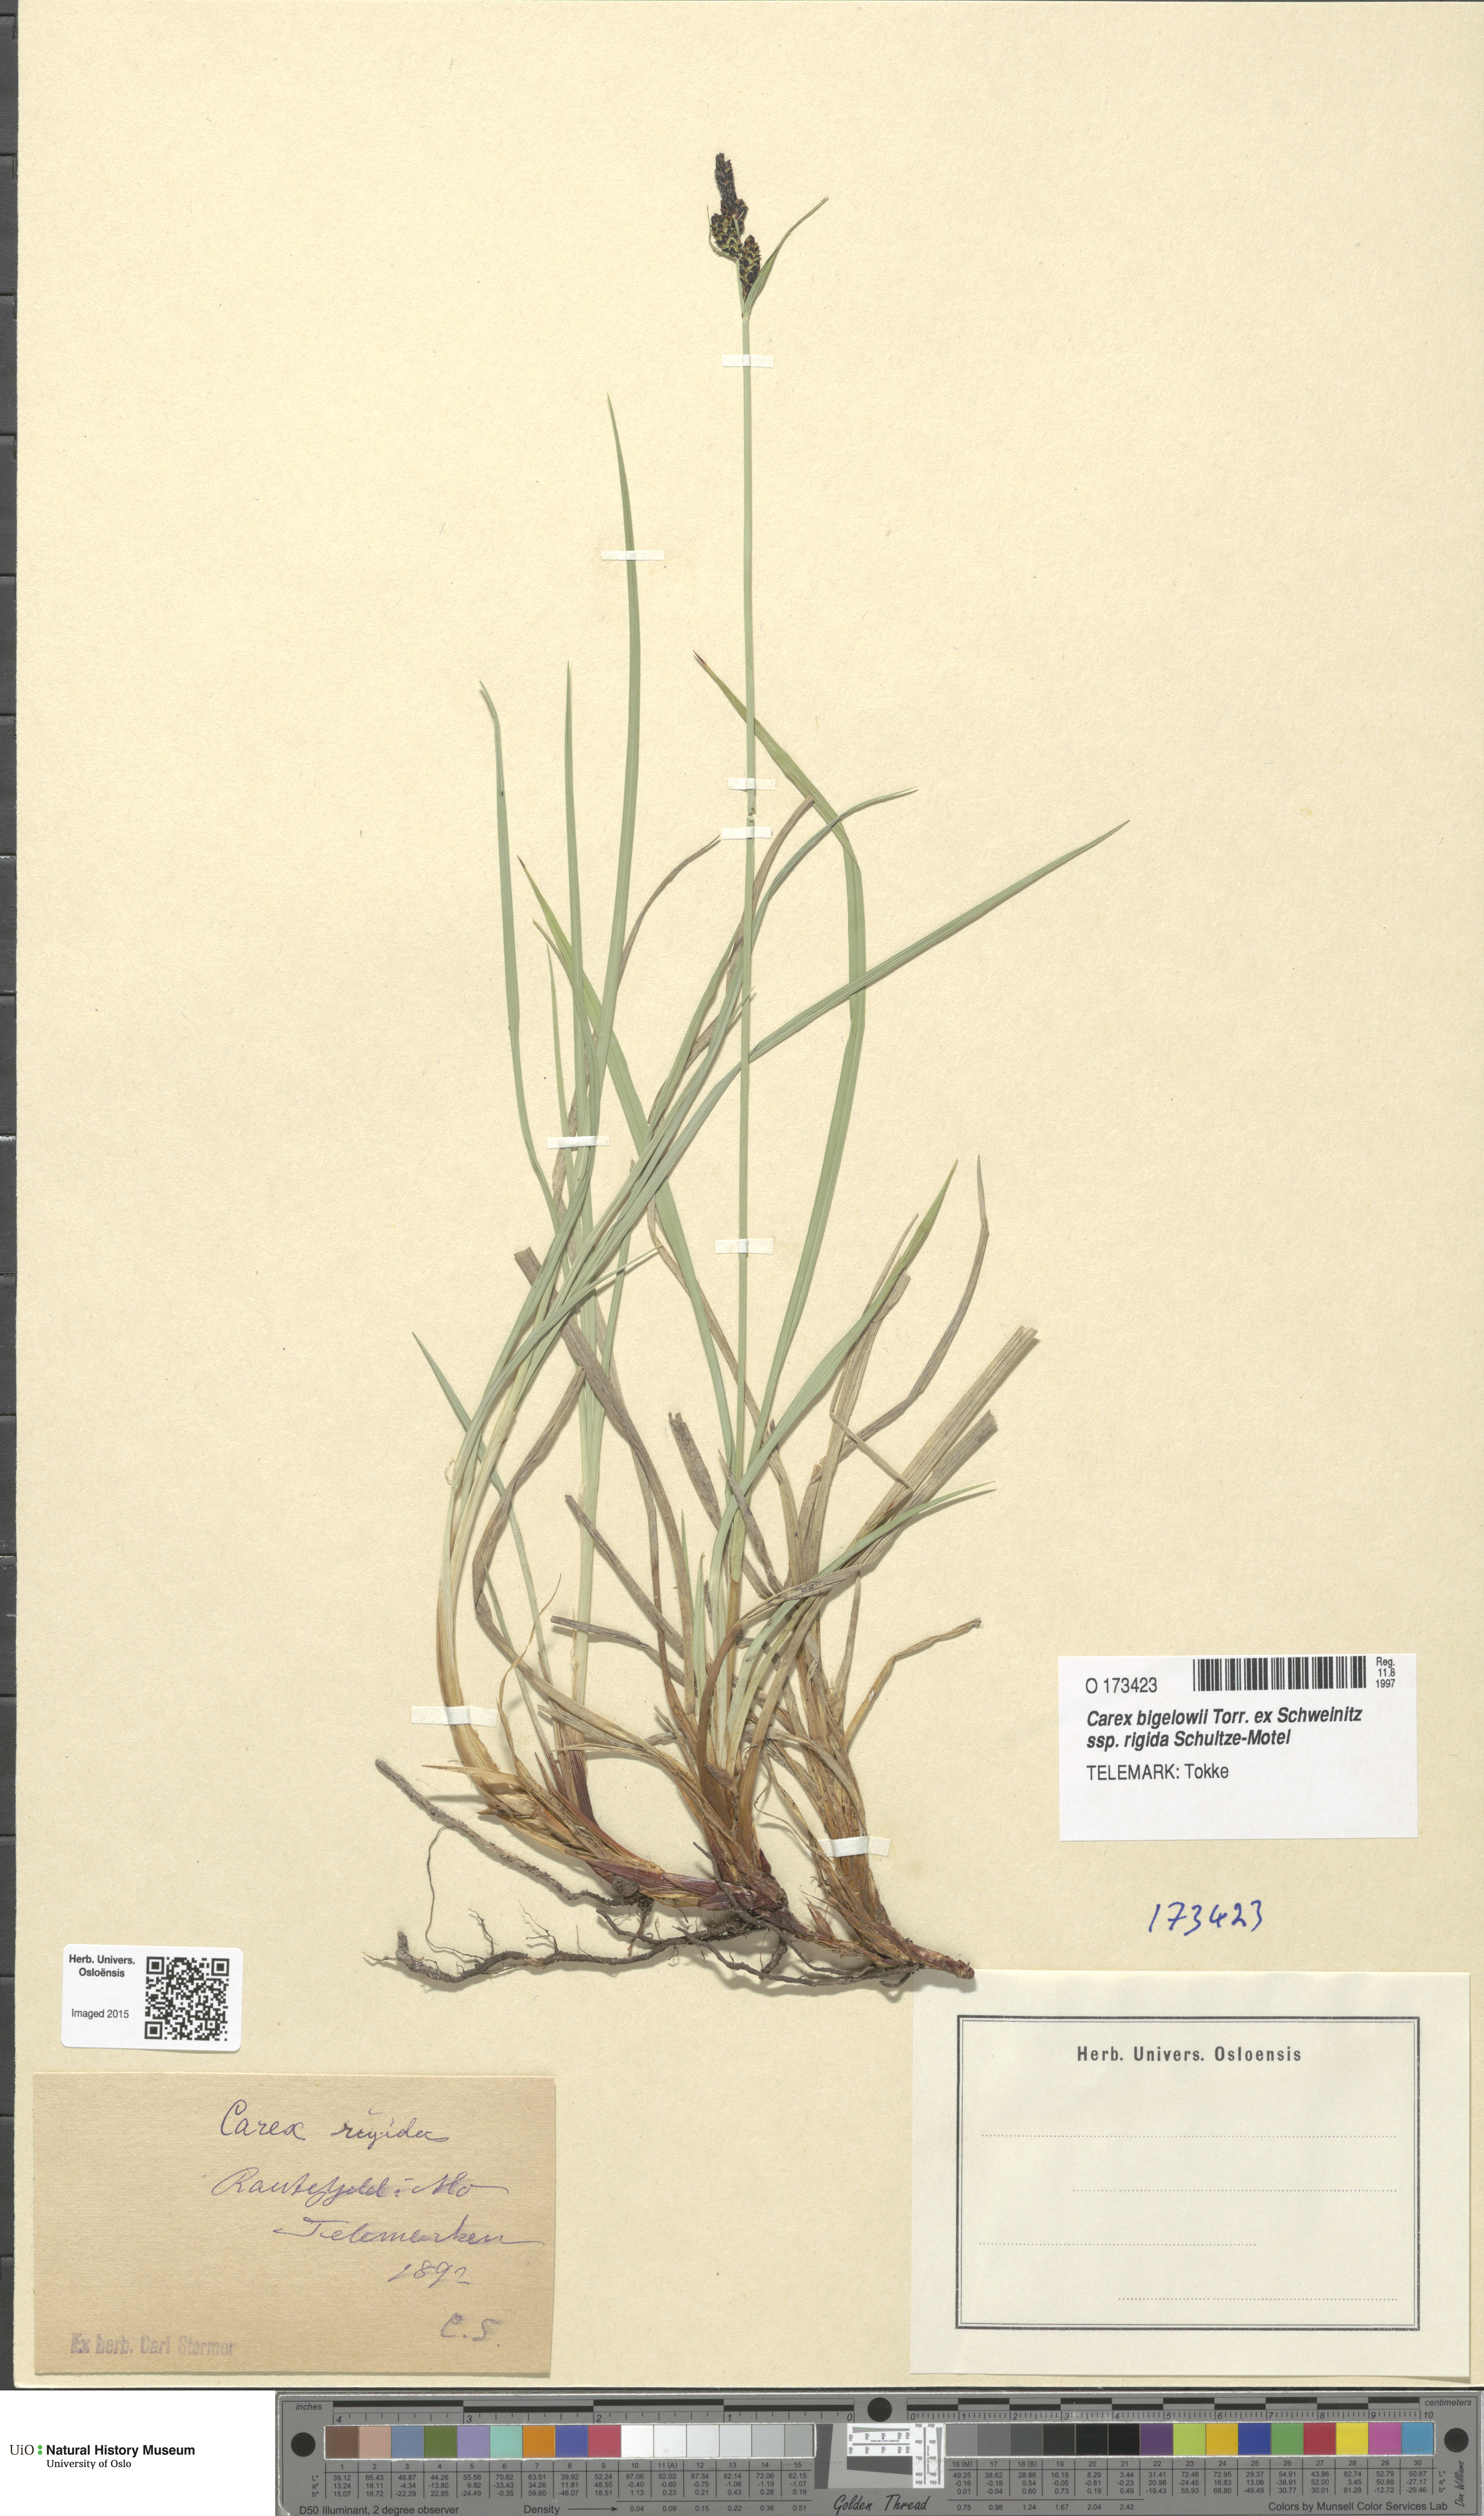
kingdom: Plantae
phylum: Tracheophyta
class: Liliopsida
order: Poales
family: Cyperaceae
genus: Carex
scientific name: Carex dacica
